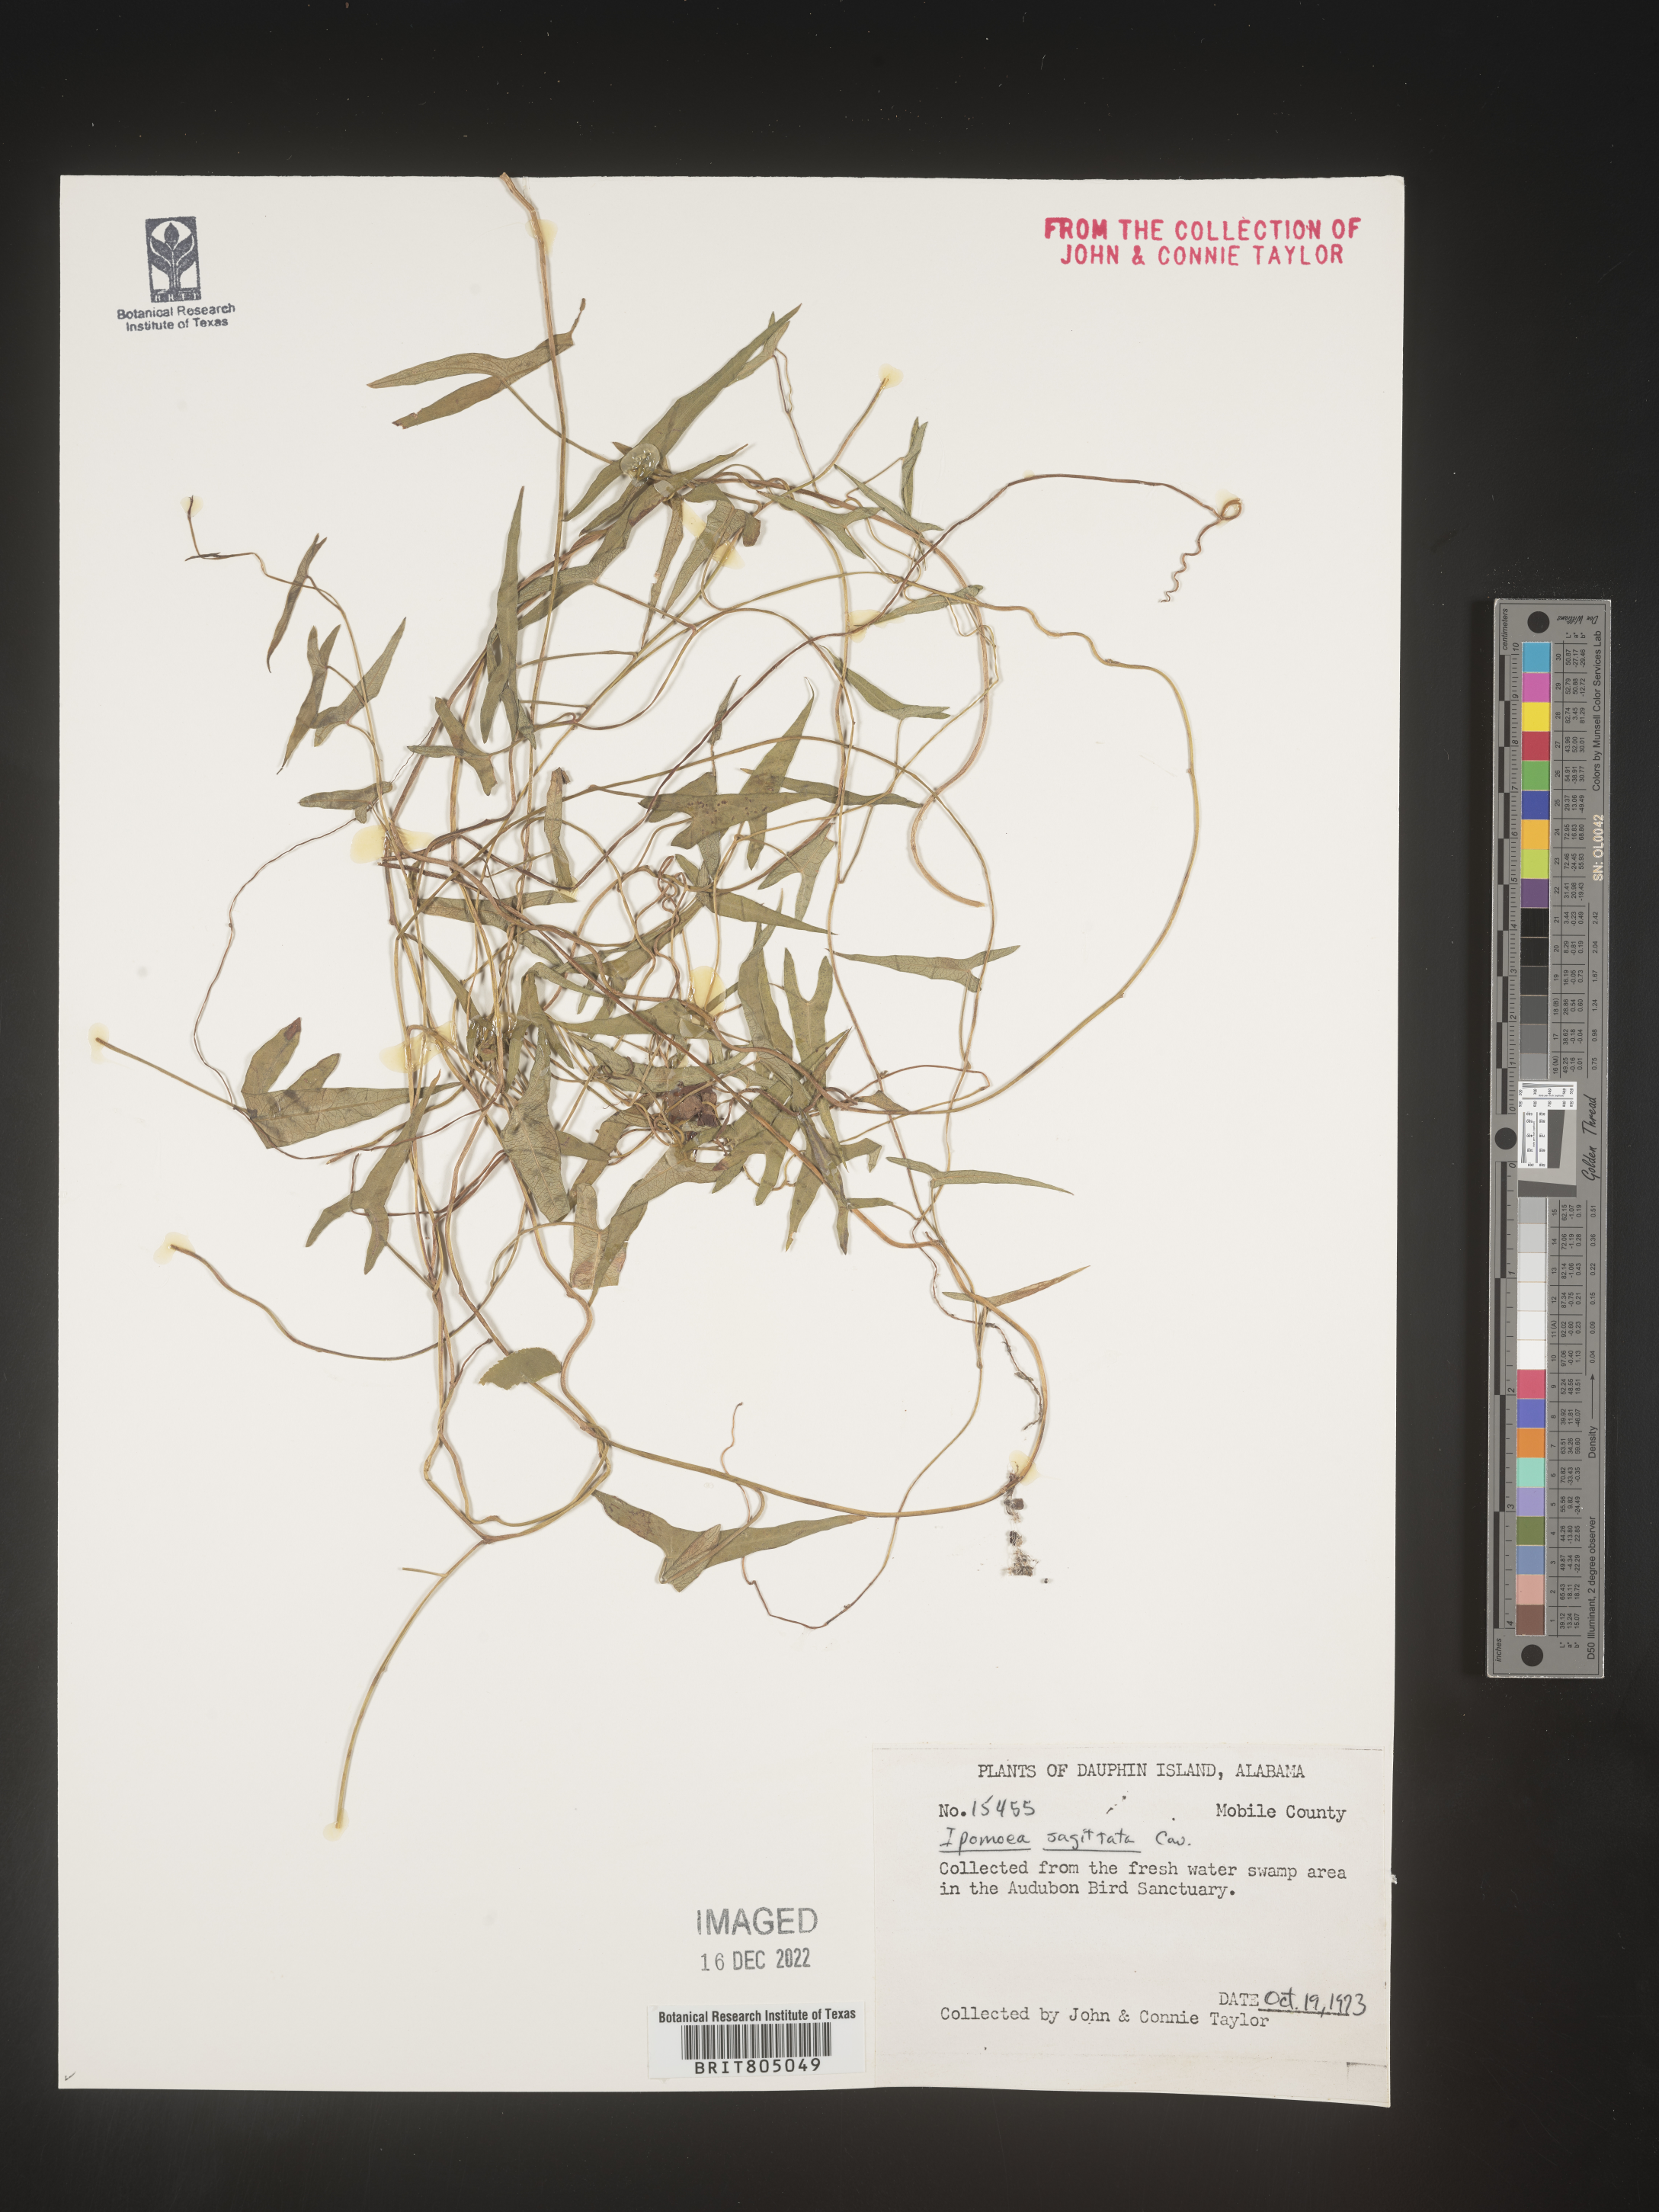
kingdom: Plantae
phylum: Tracheophyta
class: Magnoliopsida
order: Solanales
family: Convolvulaceae
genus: Ipomoea
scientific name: Ipomoea sinensis
